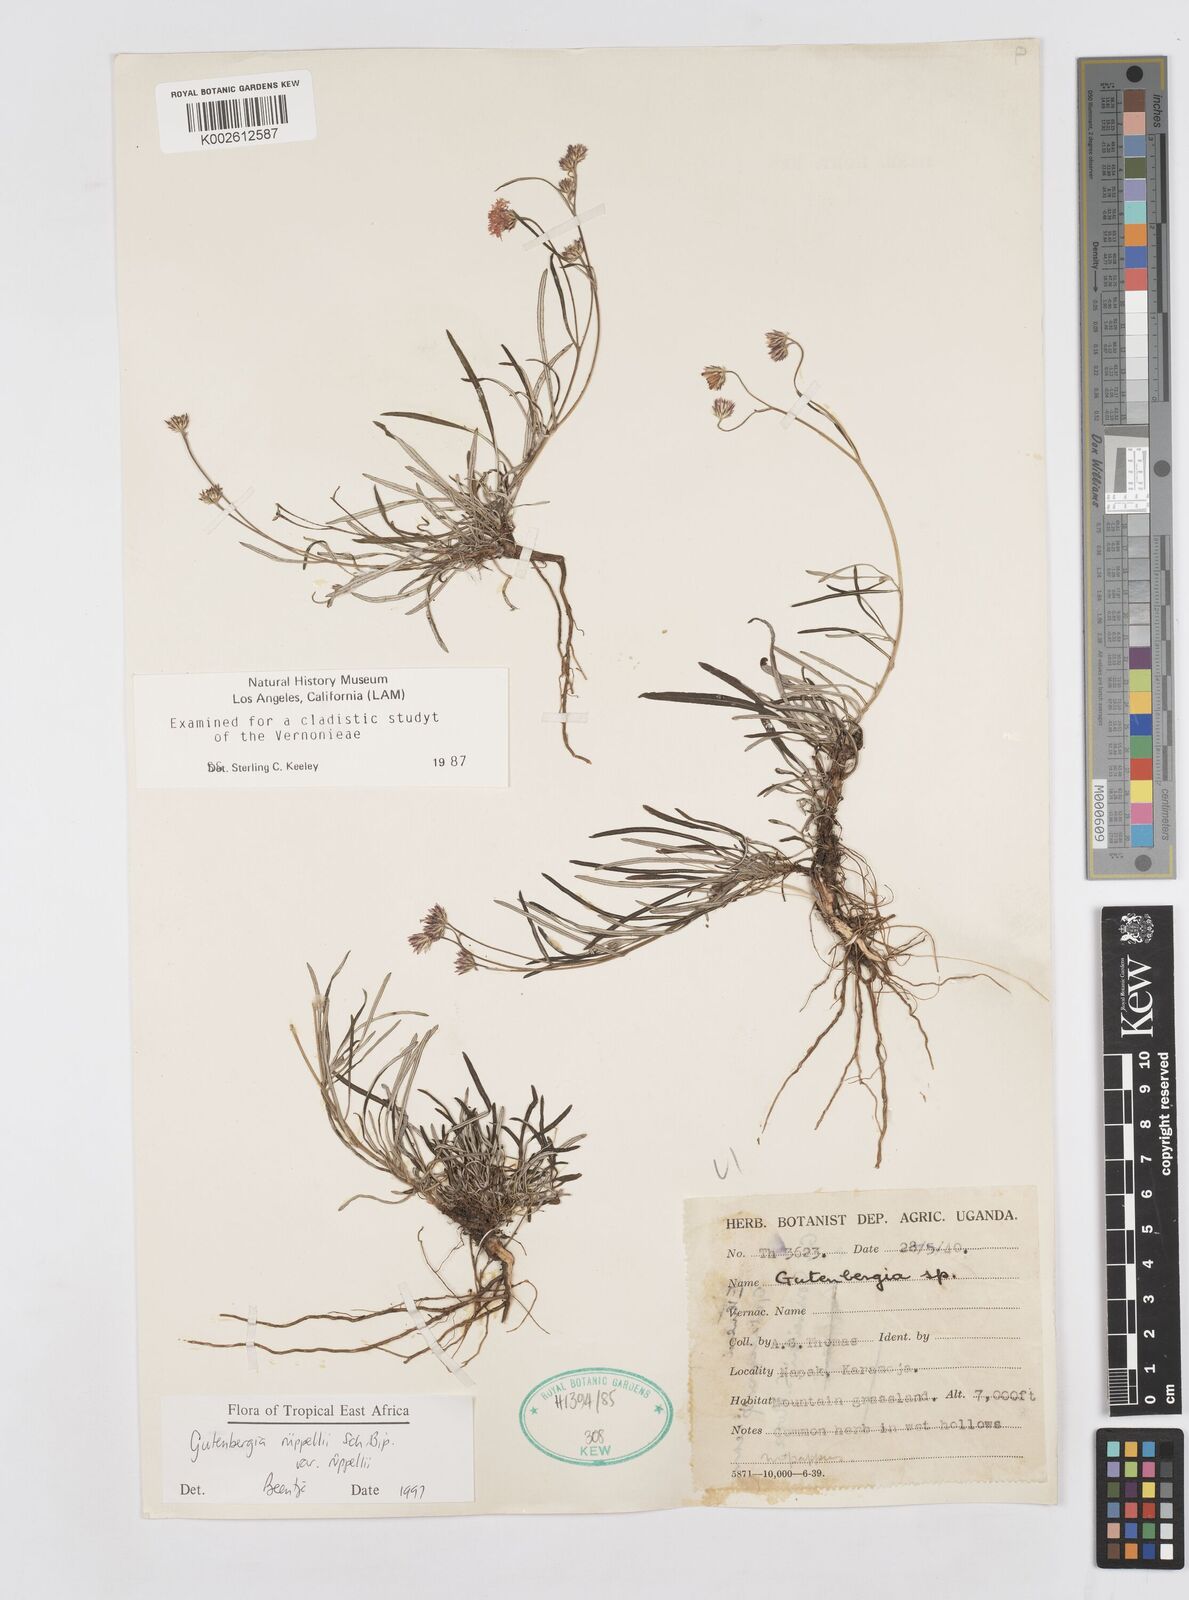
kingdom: Plantae
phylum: Tracheophyta
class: Magnoliopsida
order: Asterales
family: Asteraceae
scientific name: Asteraceae
